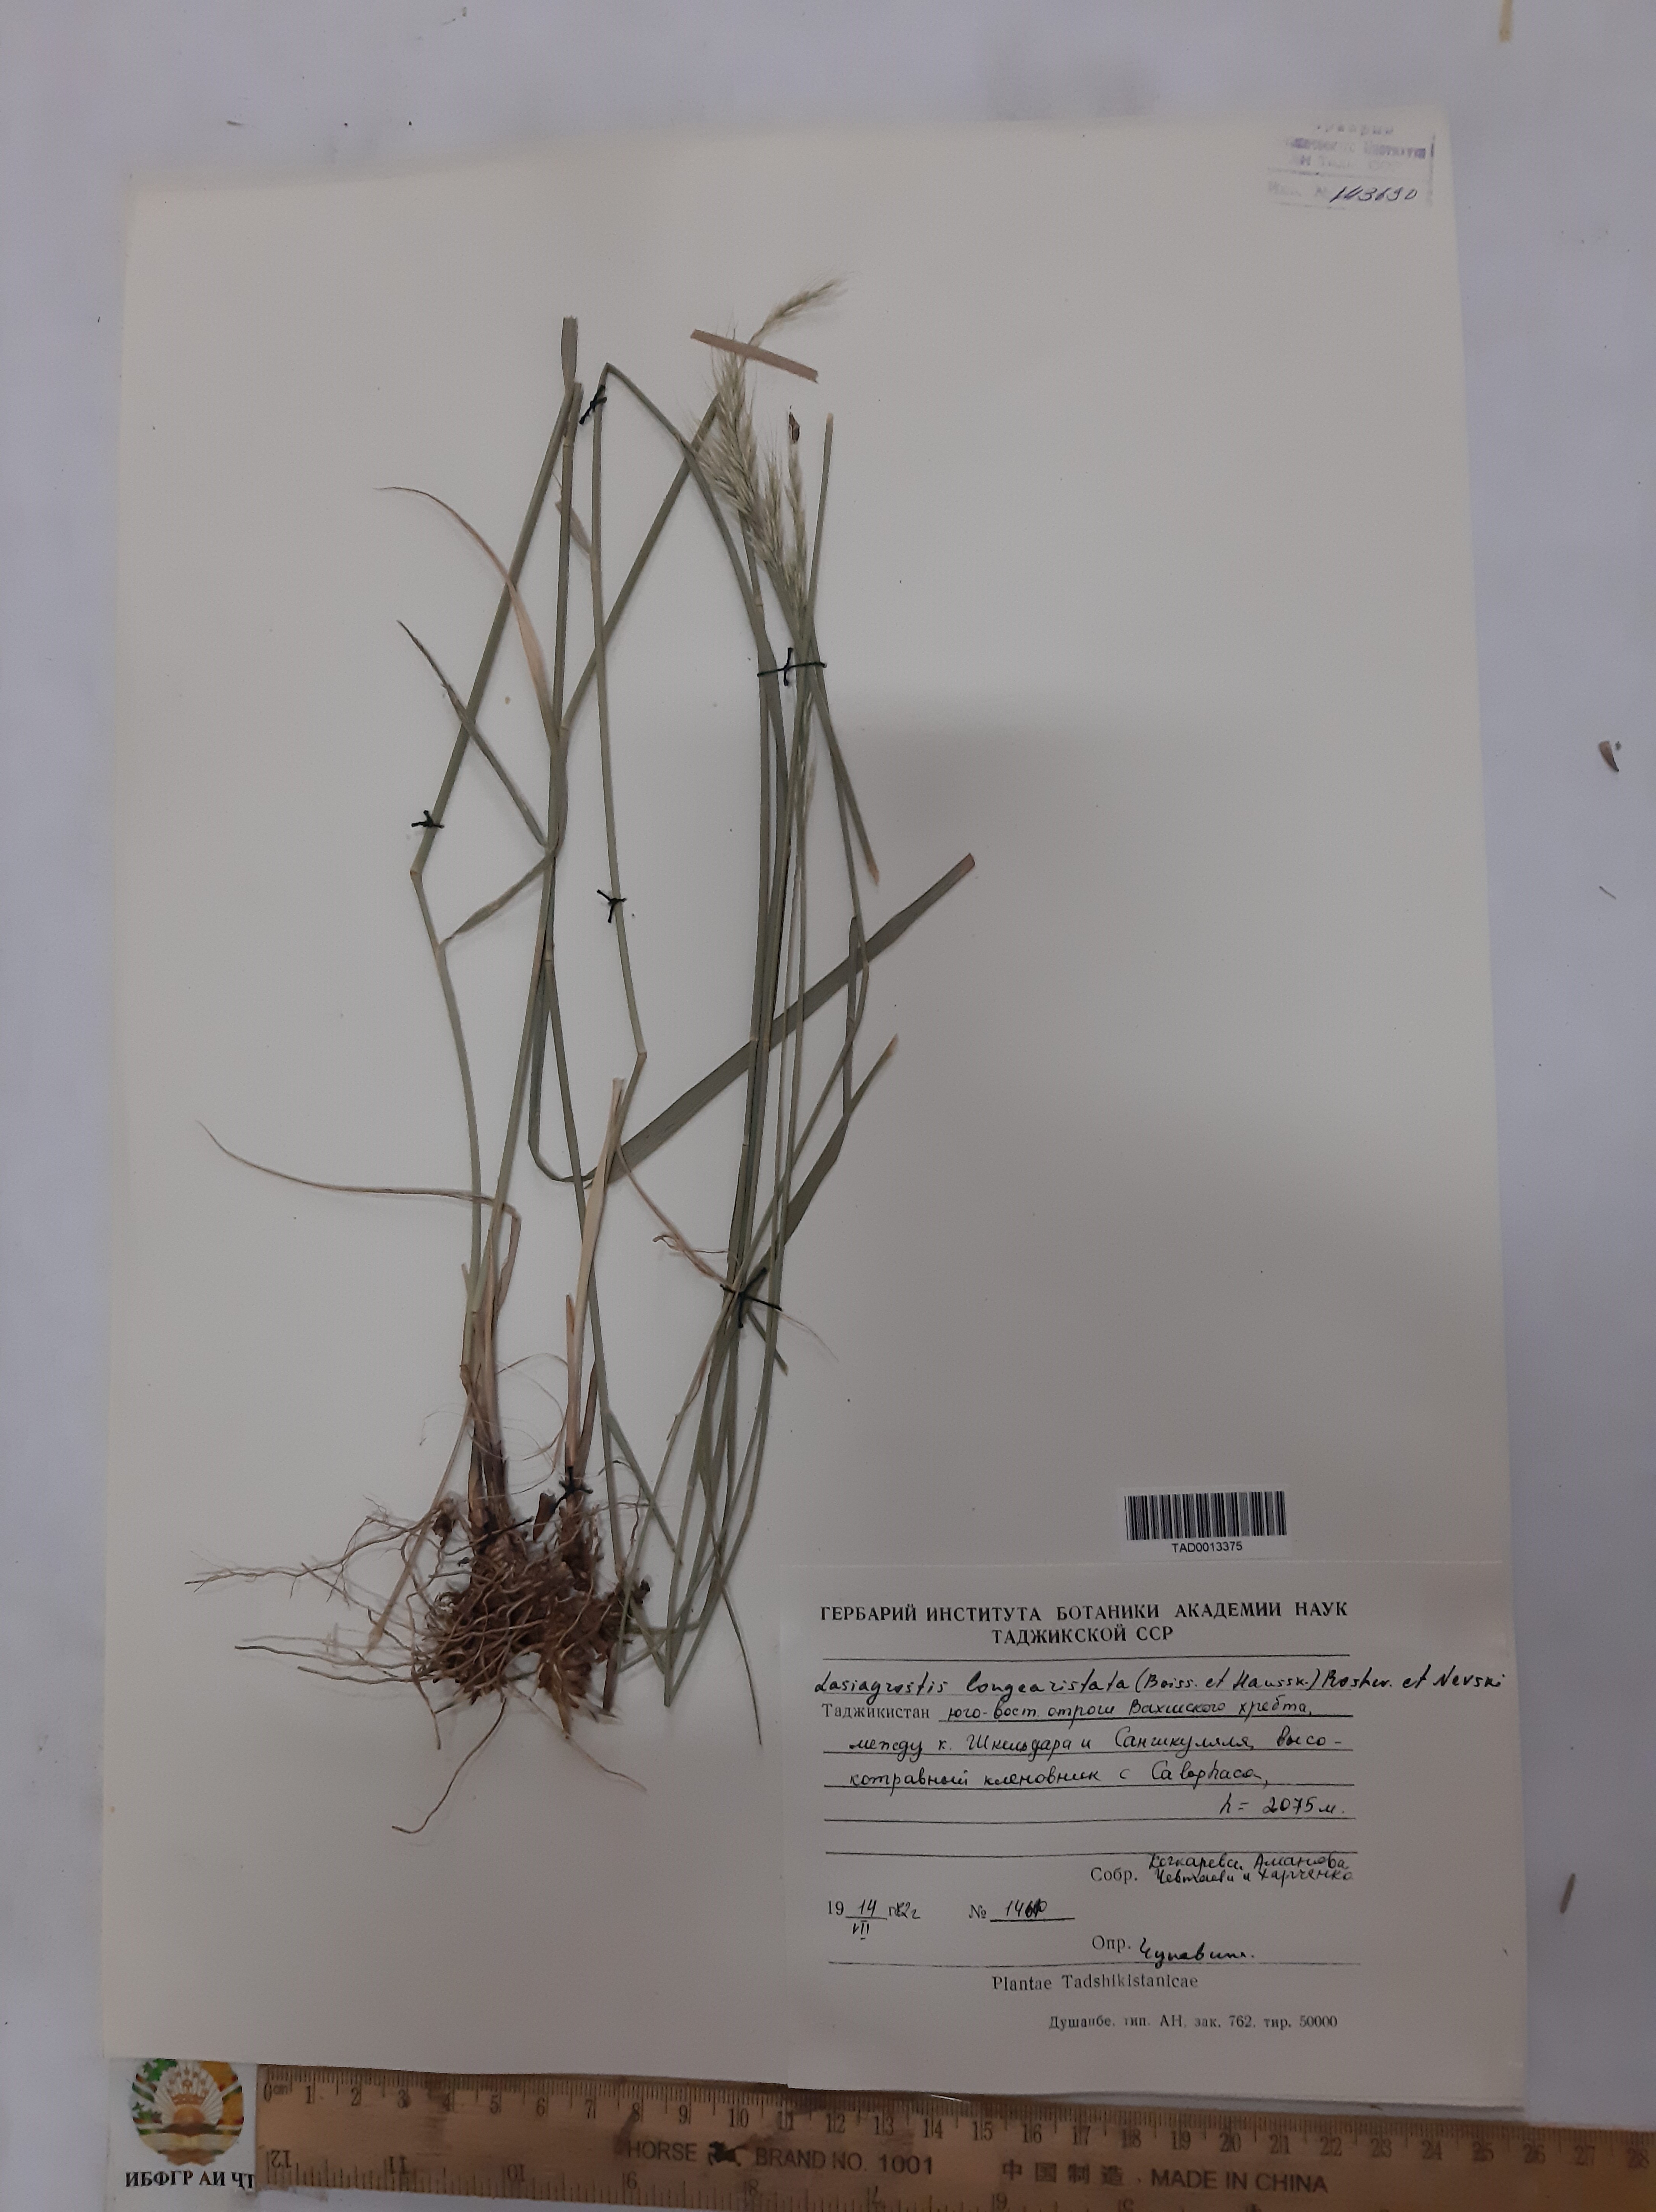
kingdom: Plantae
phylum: Tracheophyta
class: Liliopsida
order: Poales
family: Poaceae
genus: Achnatherum
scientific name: Achnatherum turcomanicum
